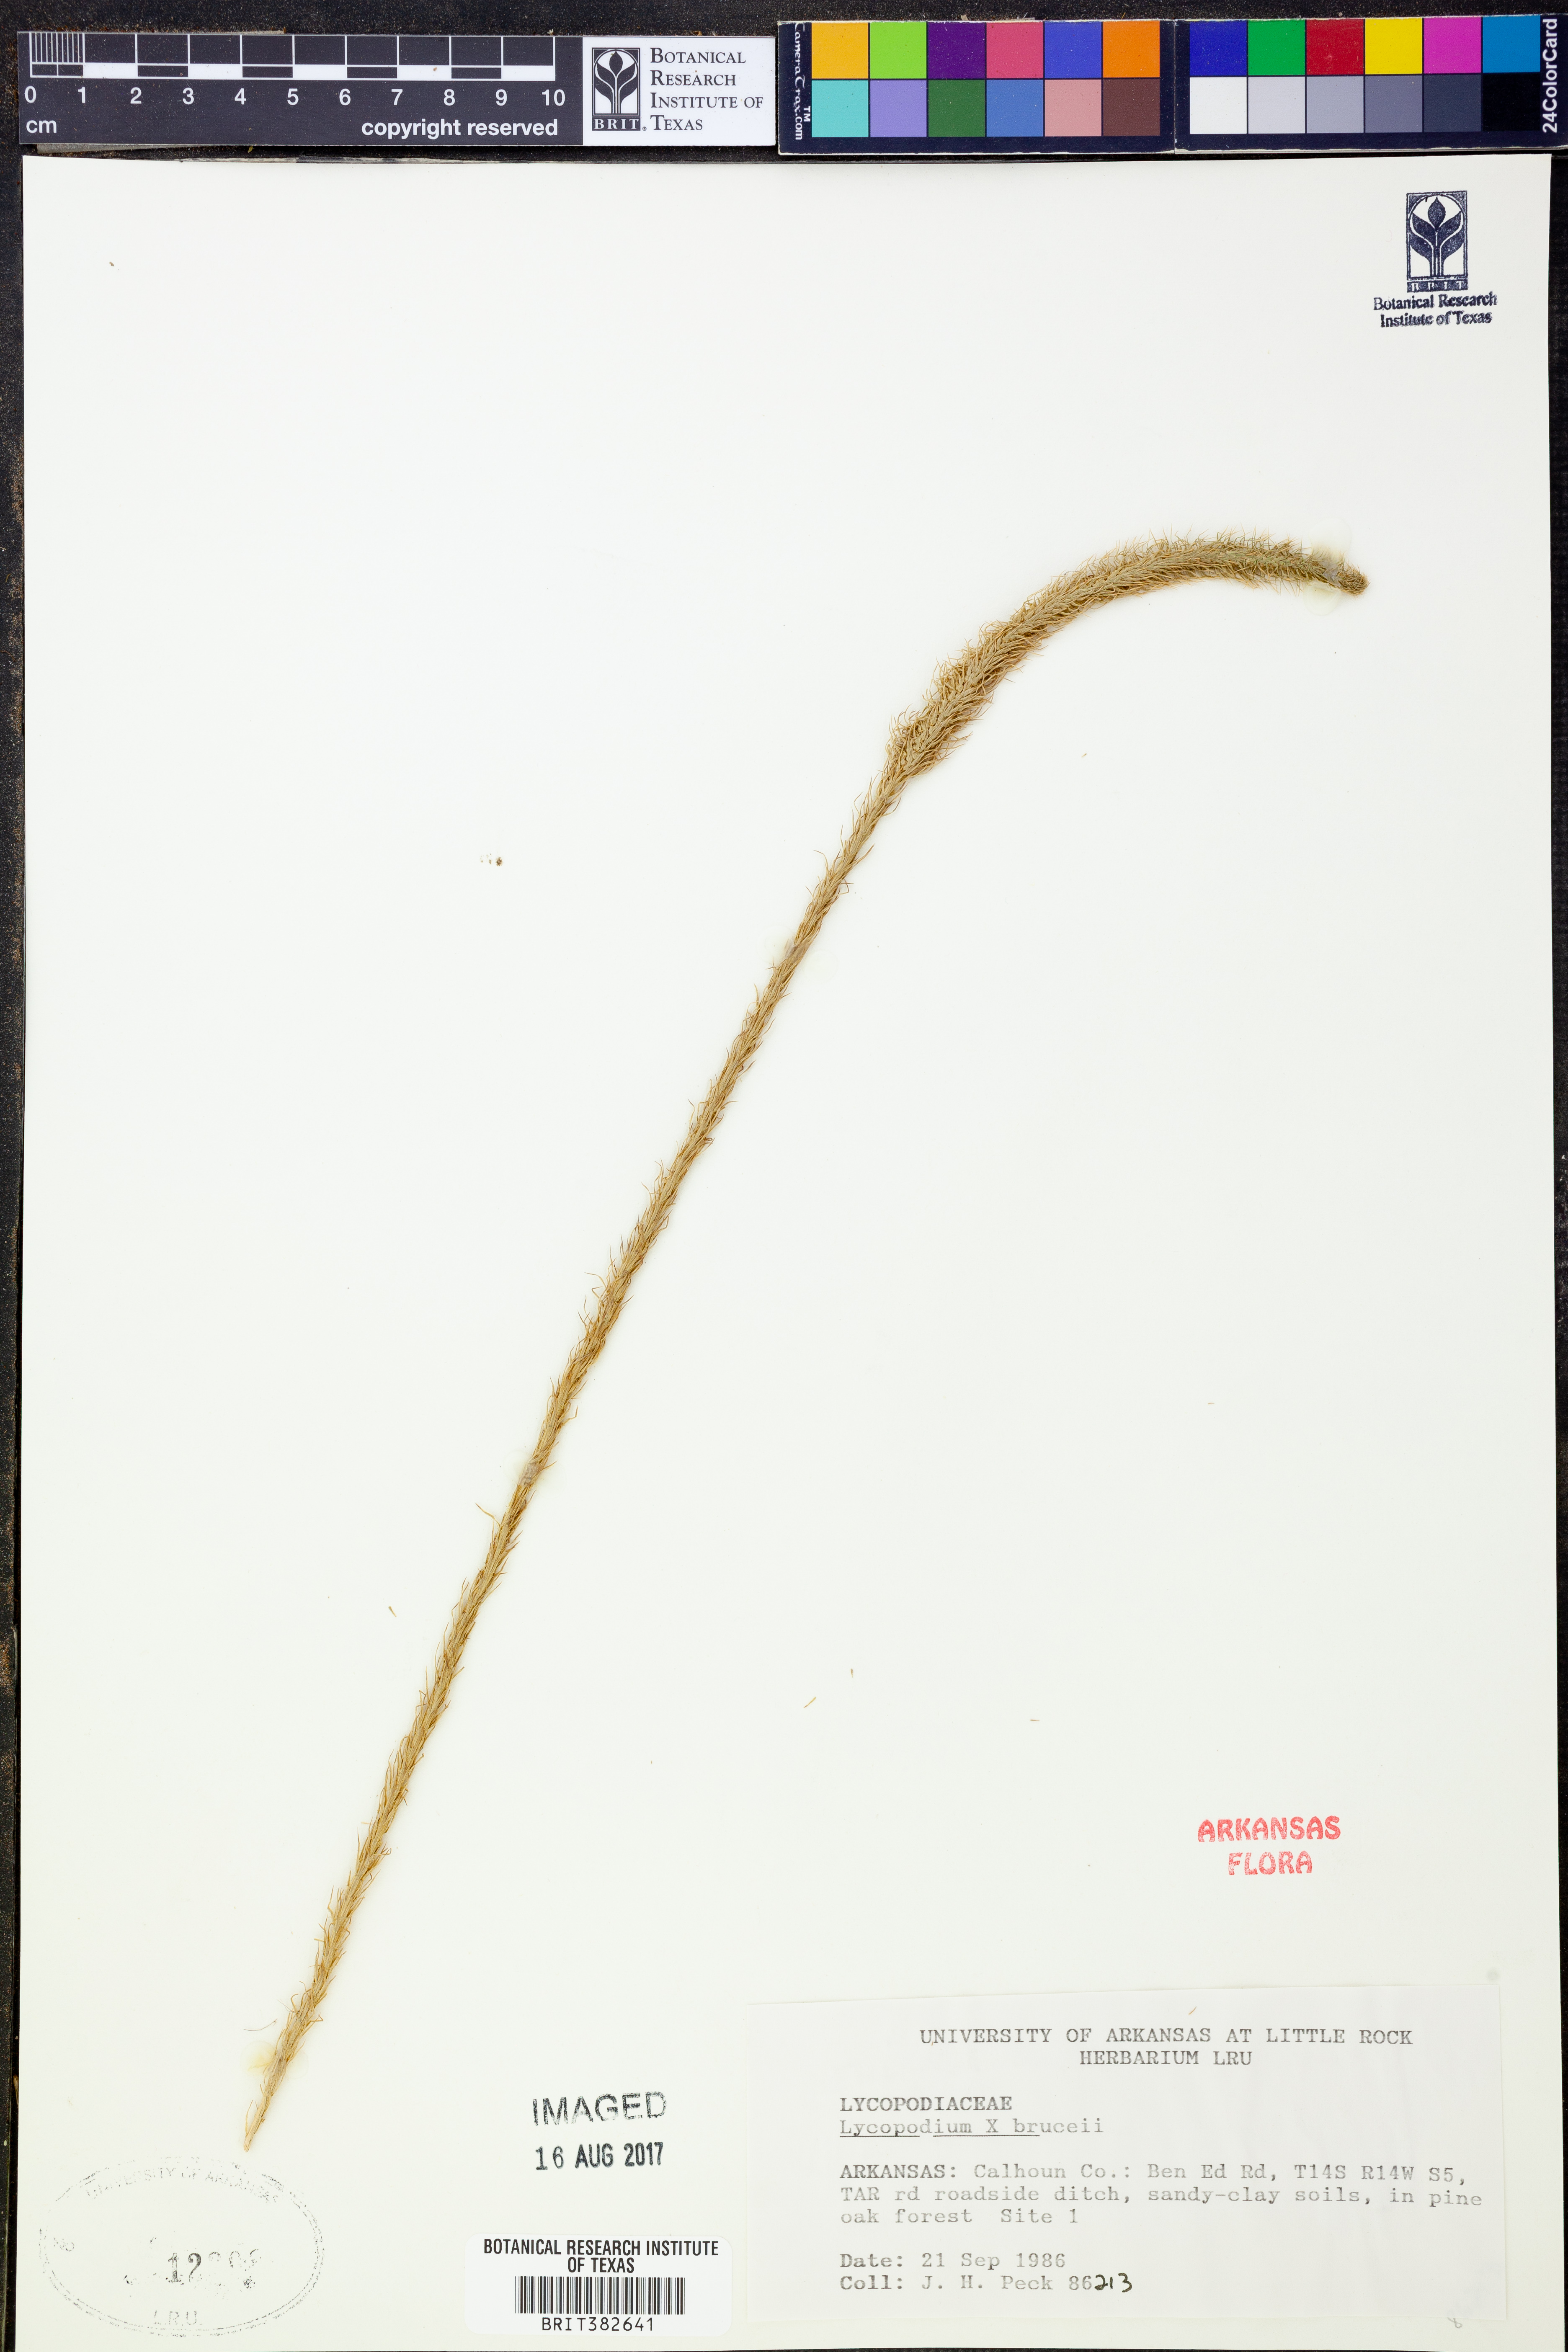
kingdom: Plantae
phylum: Tracheophyta
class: Lycopodiopsida
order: Lycopodiales
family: Lycopodiaceae
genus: Lycopodiella
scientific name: Lycopodiella brucei
